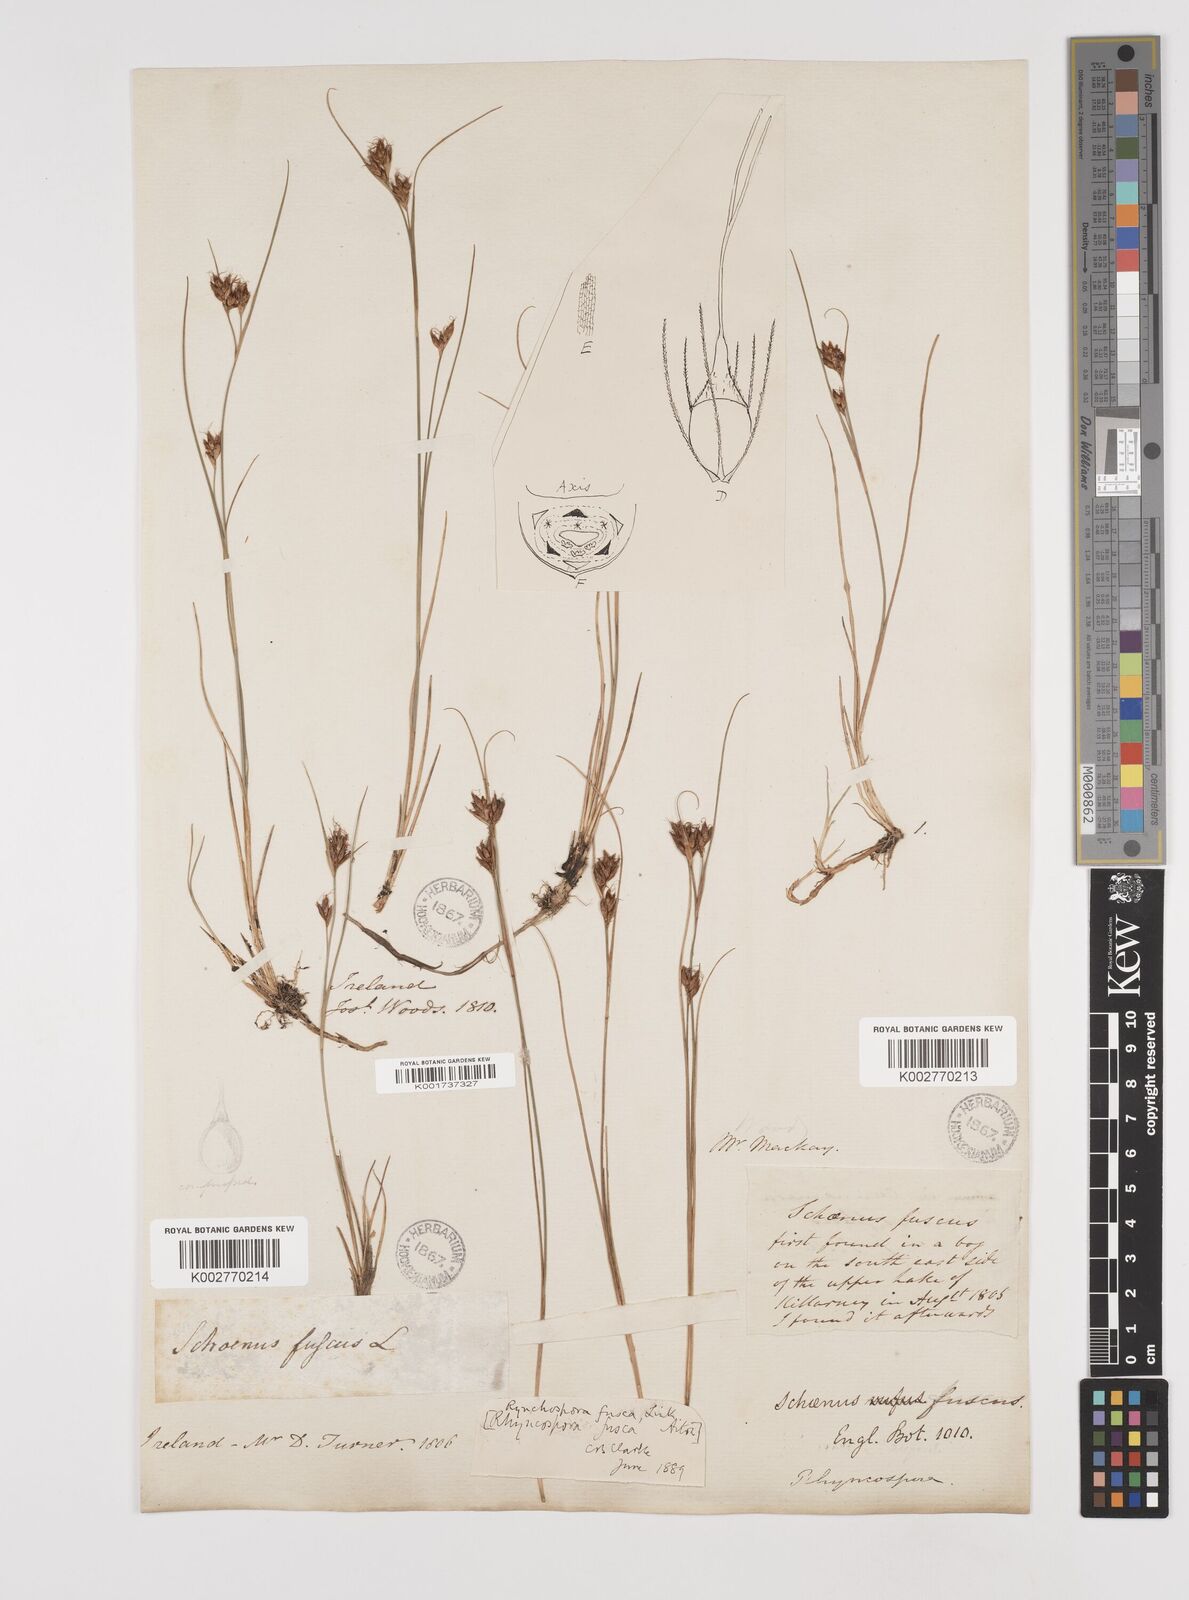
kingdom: Plantae
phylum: Tracheophyta
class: Liliopsida
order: Poales
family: Cyperaceae
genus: Rhynchospora
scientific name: Rhynchospora fusca
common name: Brown beak-sedge
